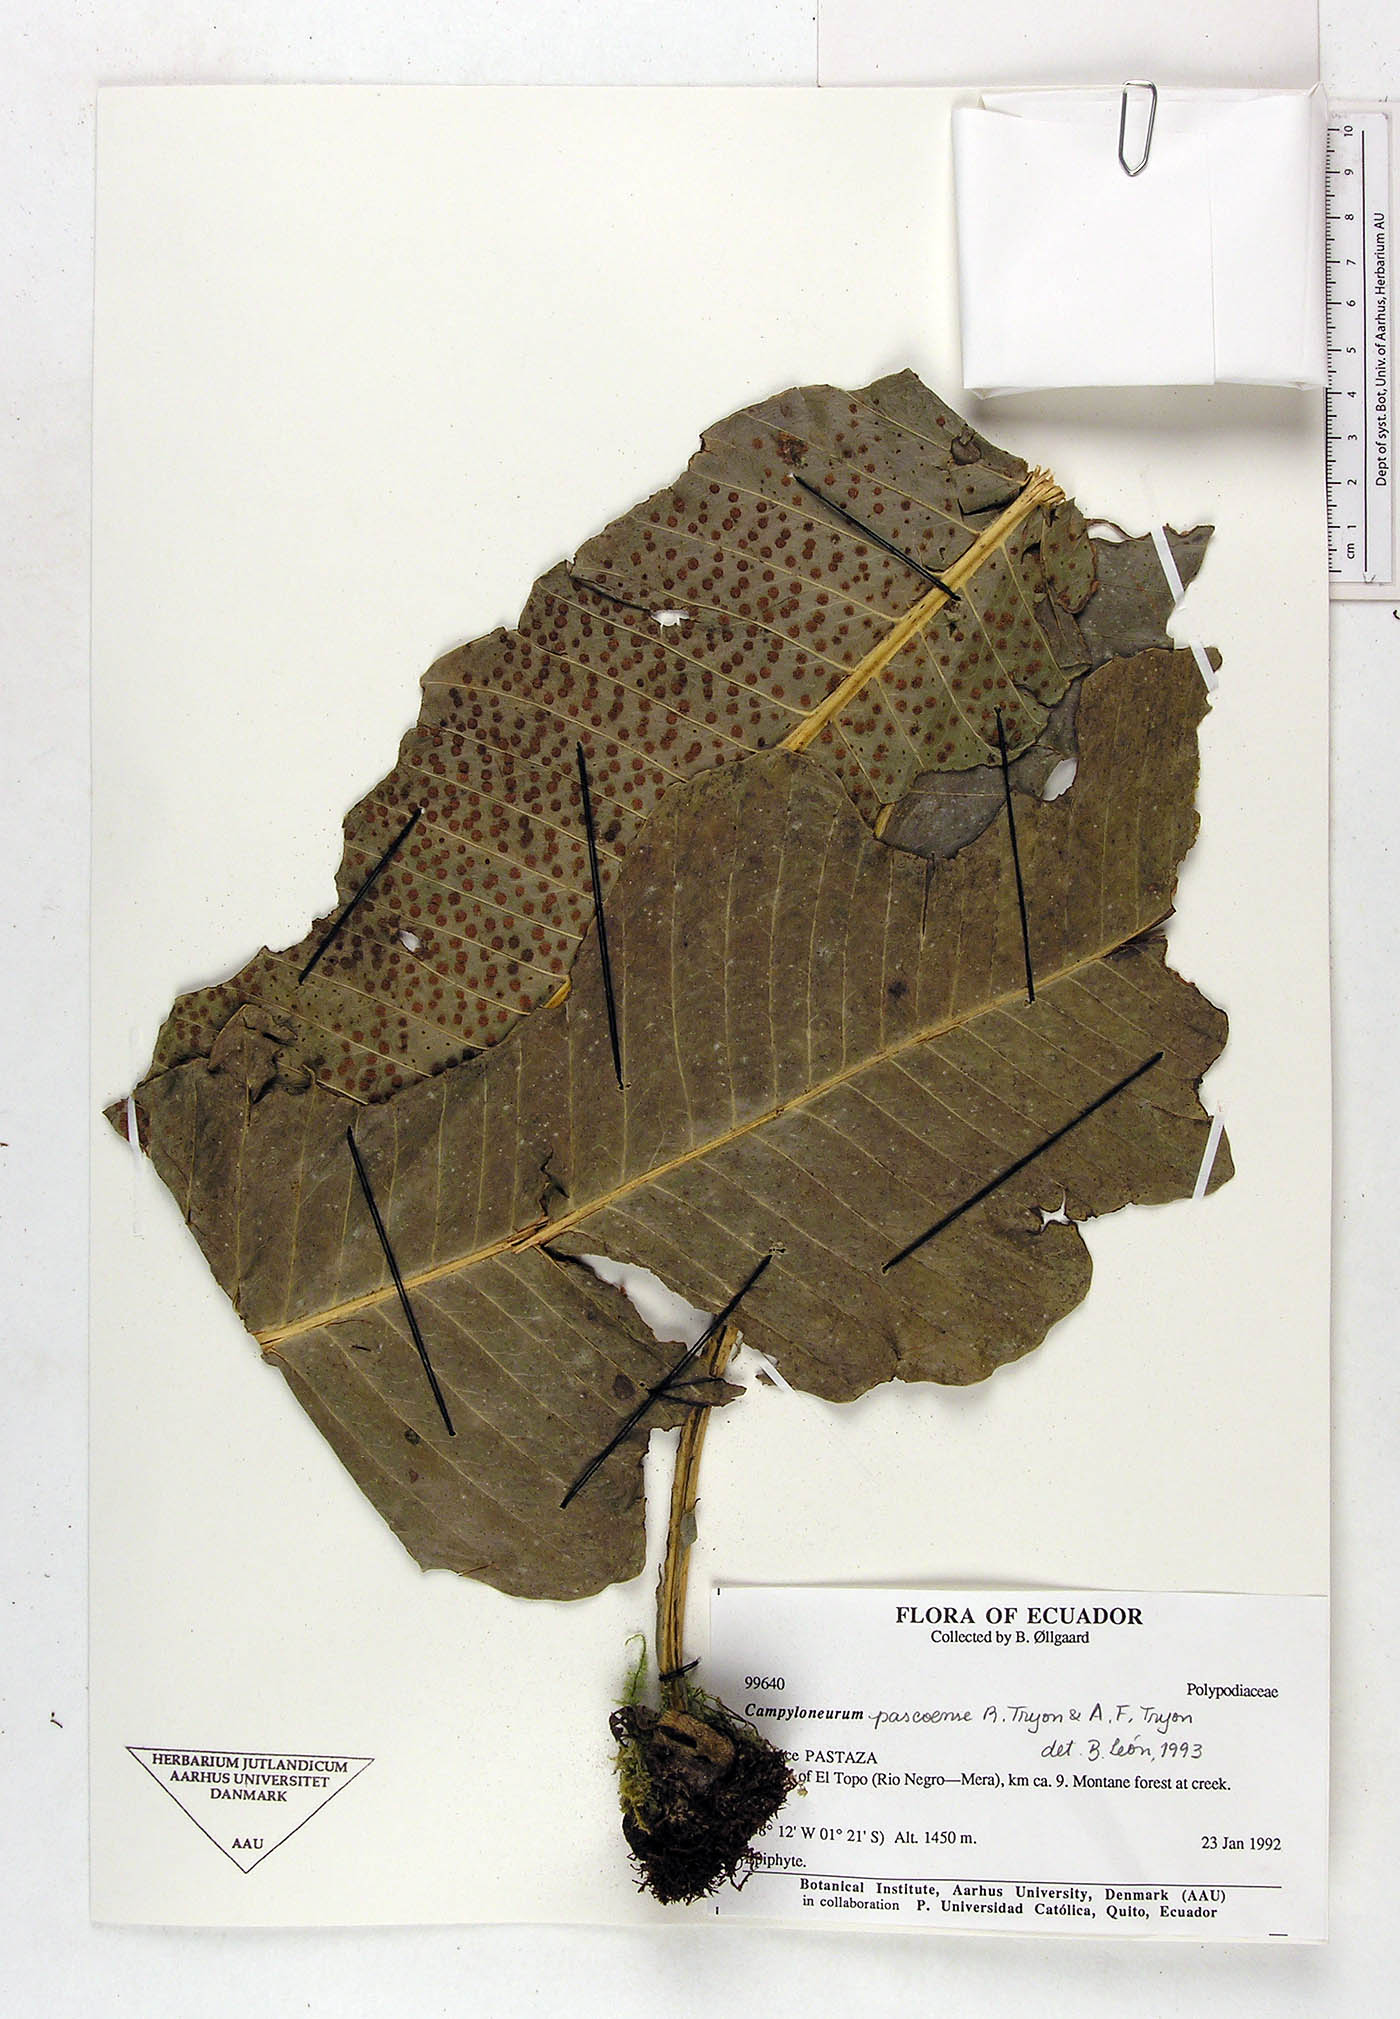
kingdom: Plantae
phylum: Tracheophyta
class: Polypodiopsida
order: Polypodiales
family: Polypodiaceae
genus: Campyloneurum
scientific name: Campyloneurum pascoense
